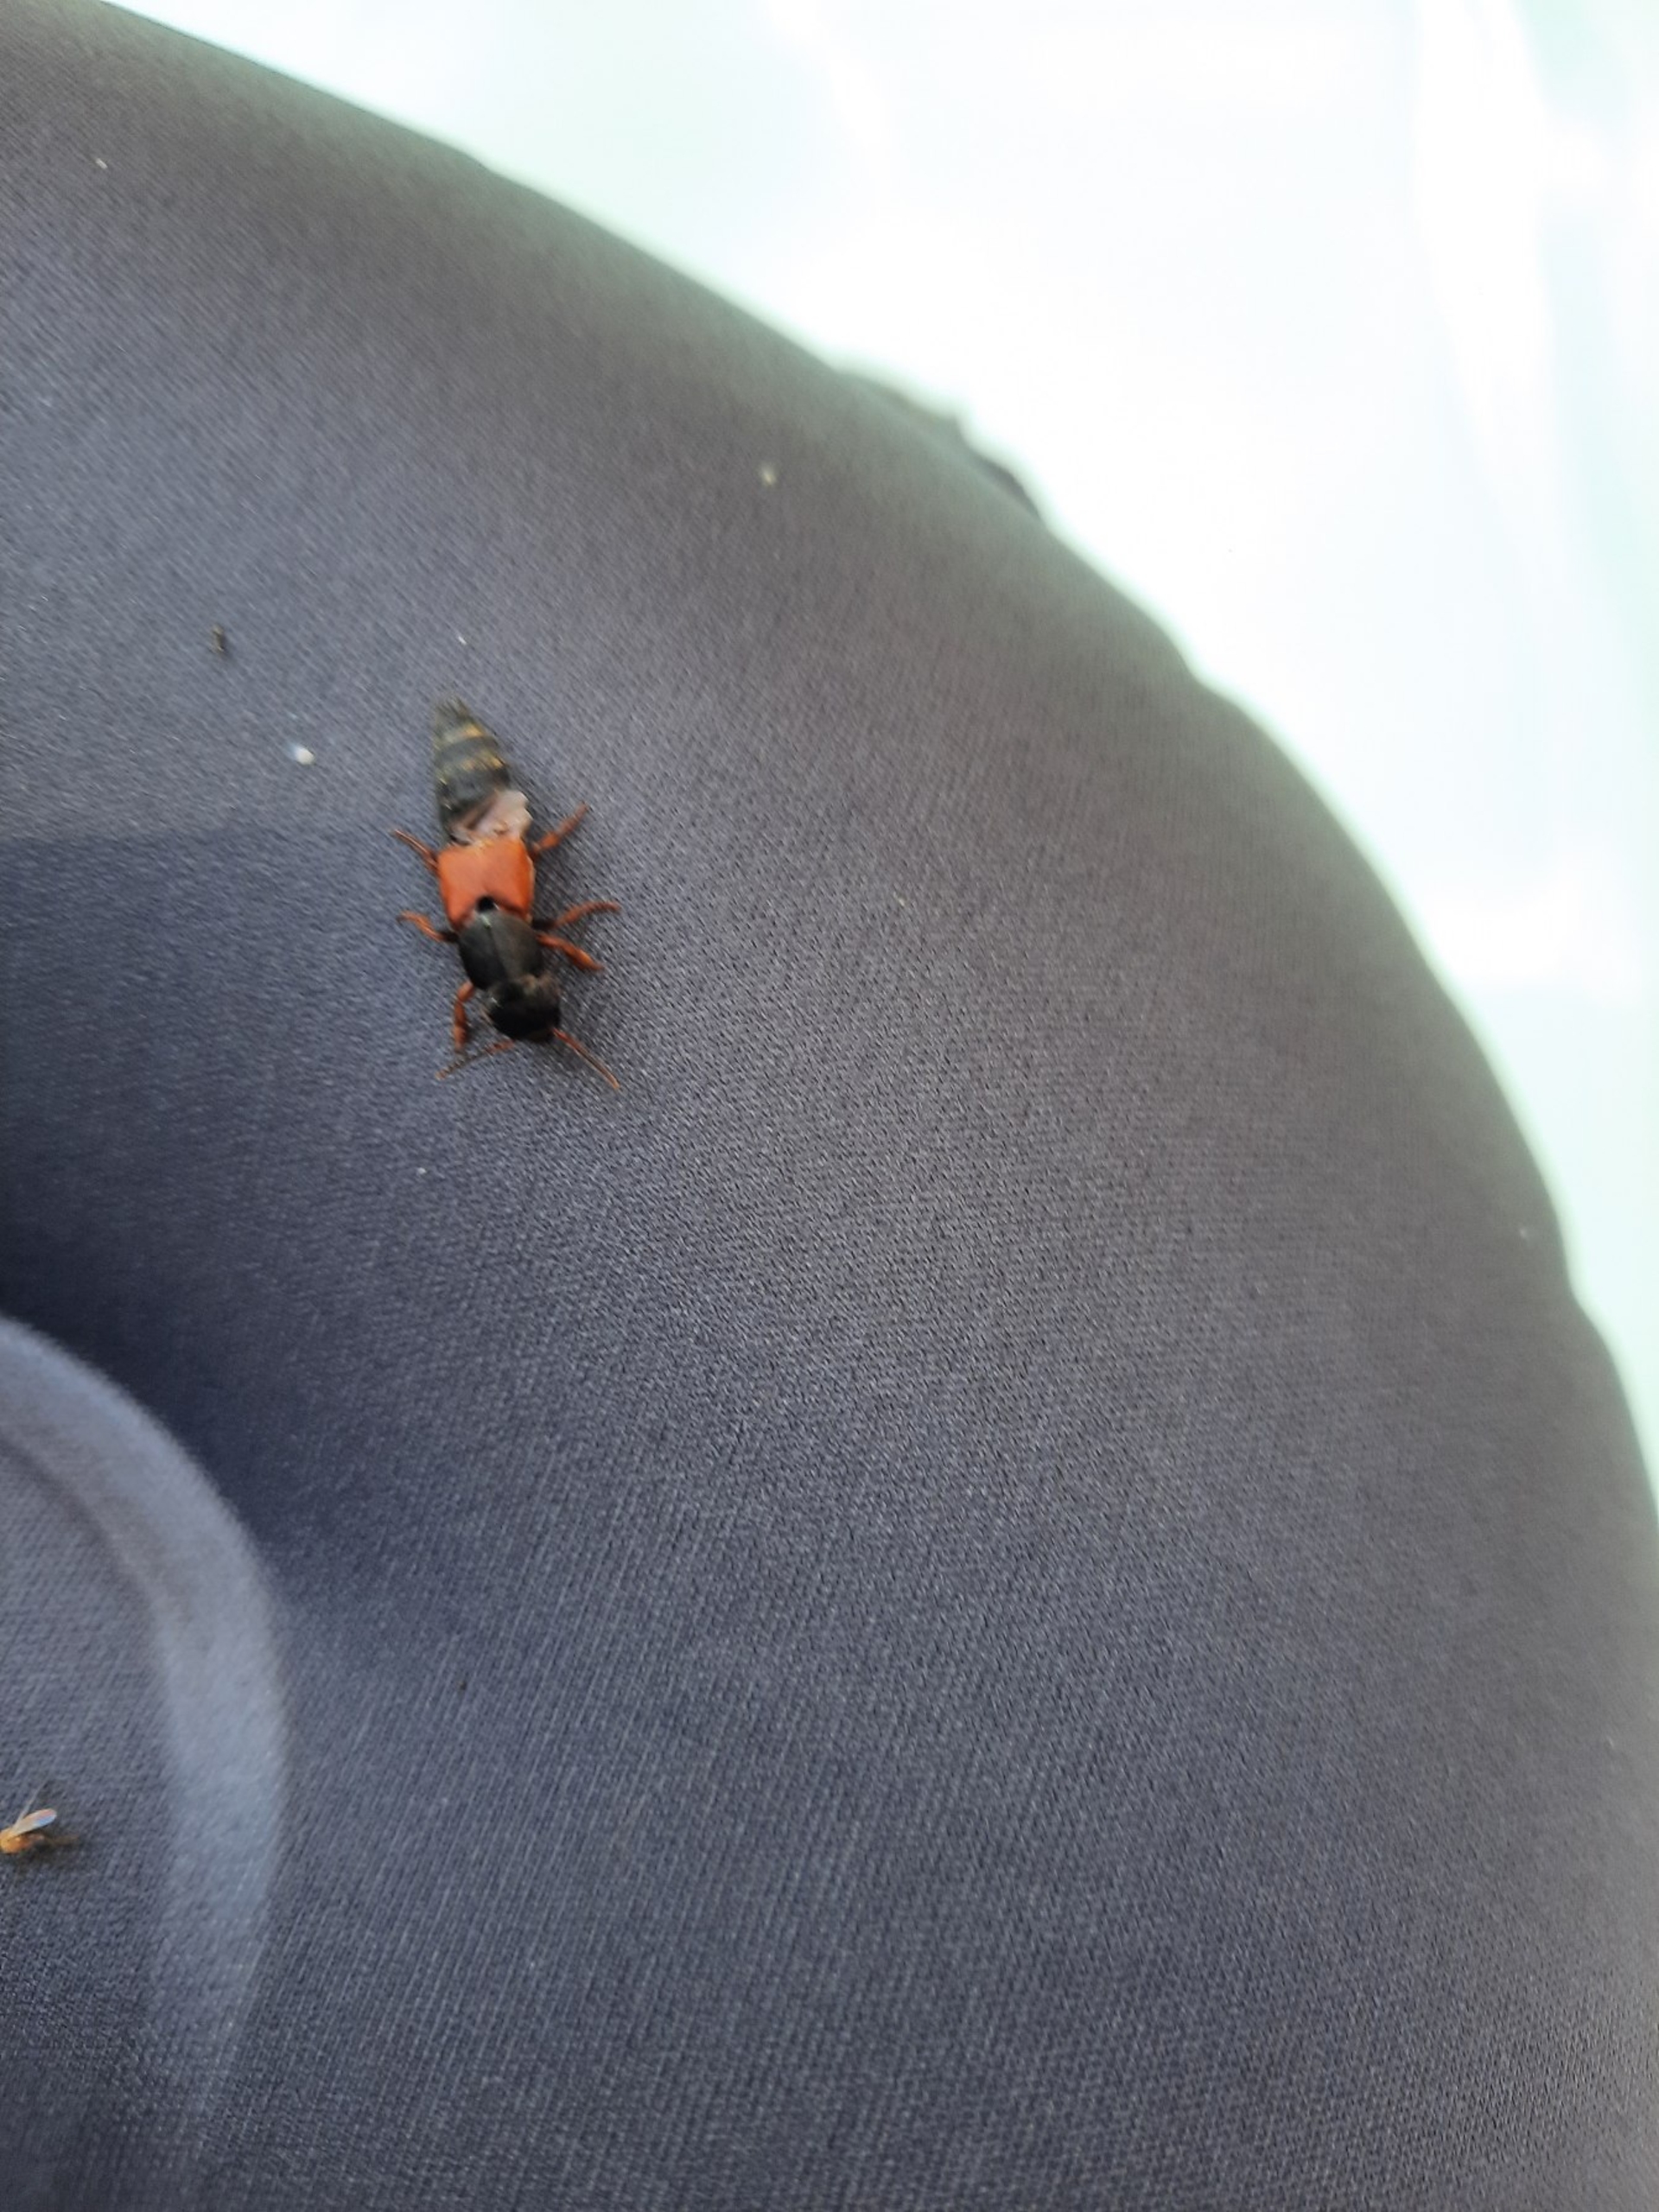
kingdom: Animalia
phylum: Arthropoda
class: Insecta
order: Coleoptera
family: Staphylinidae
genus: Platydracus
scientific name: Platydracus stercorarius
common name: Almindelig guldpletrovbille
